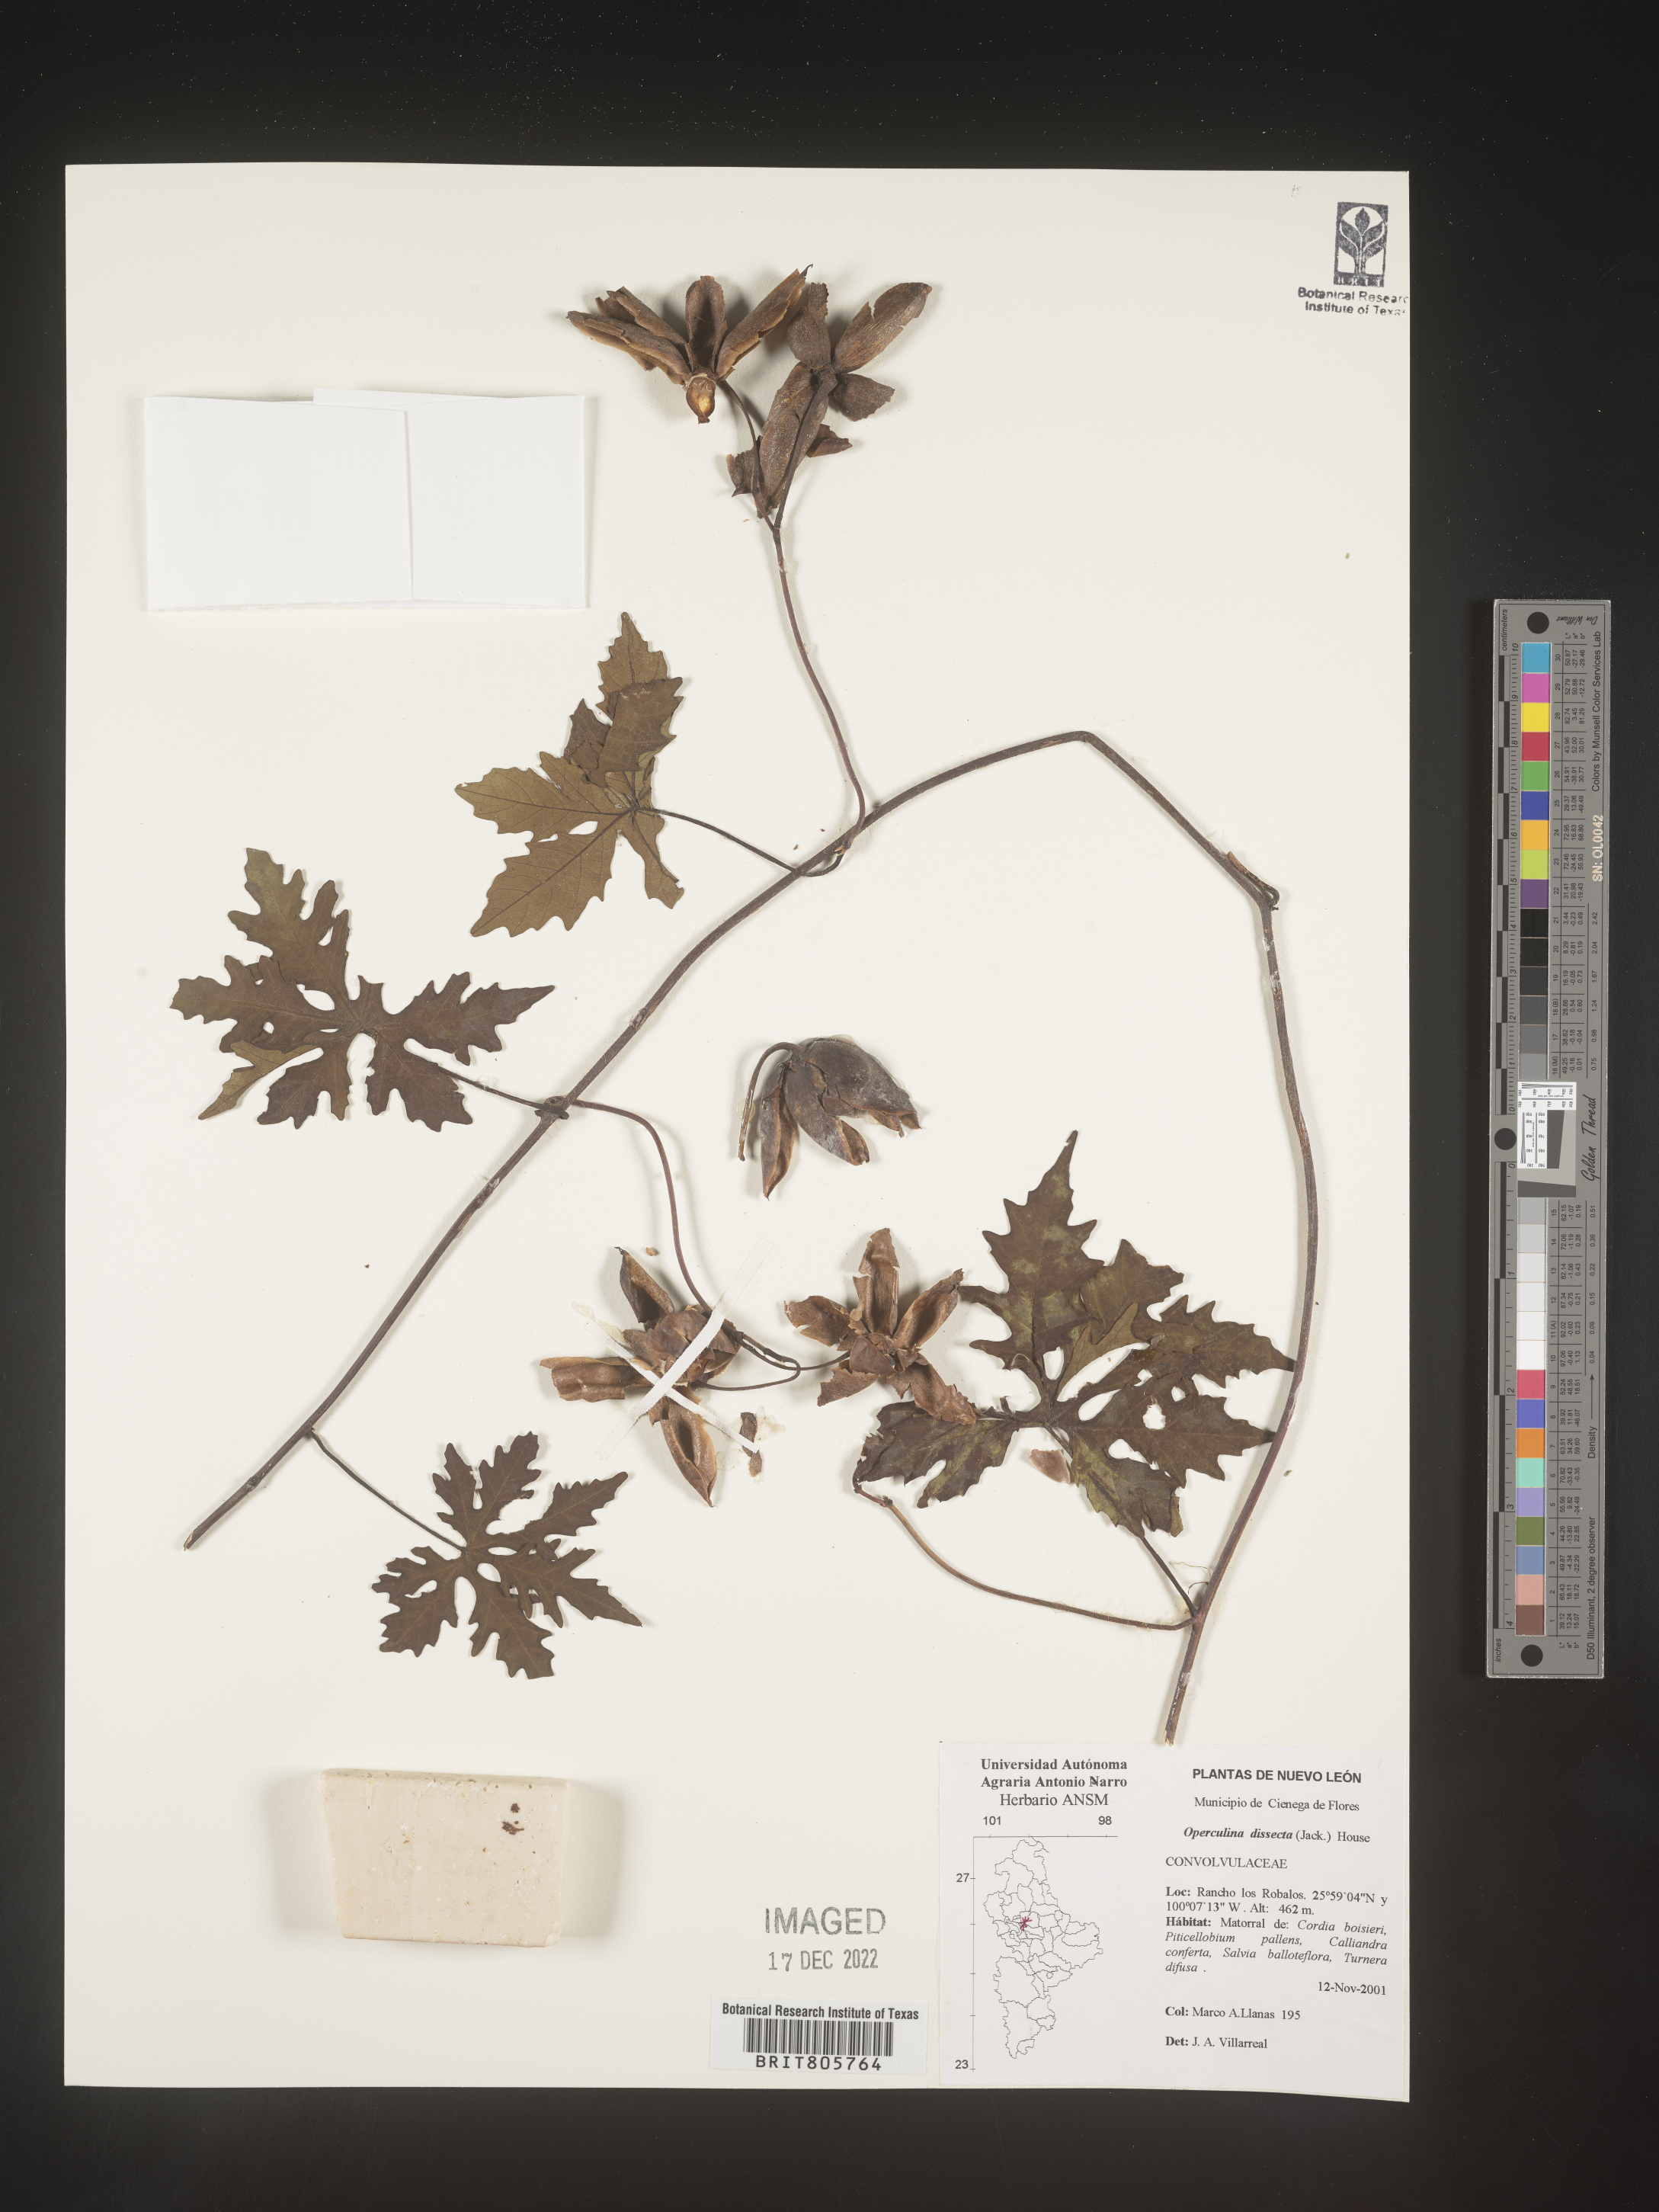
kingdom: Plantae
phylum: Tracheophyta
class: Magnoliopsida
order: Solanales
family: Convolvulaceae
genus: Operculina
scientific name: Operculina
